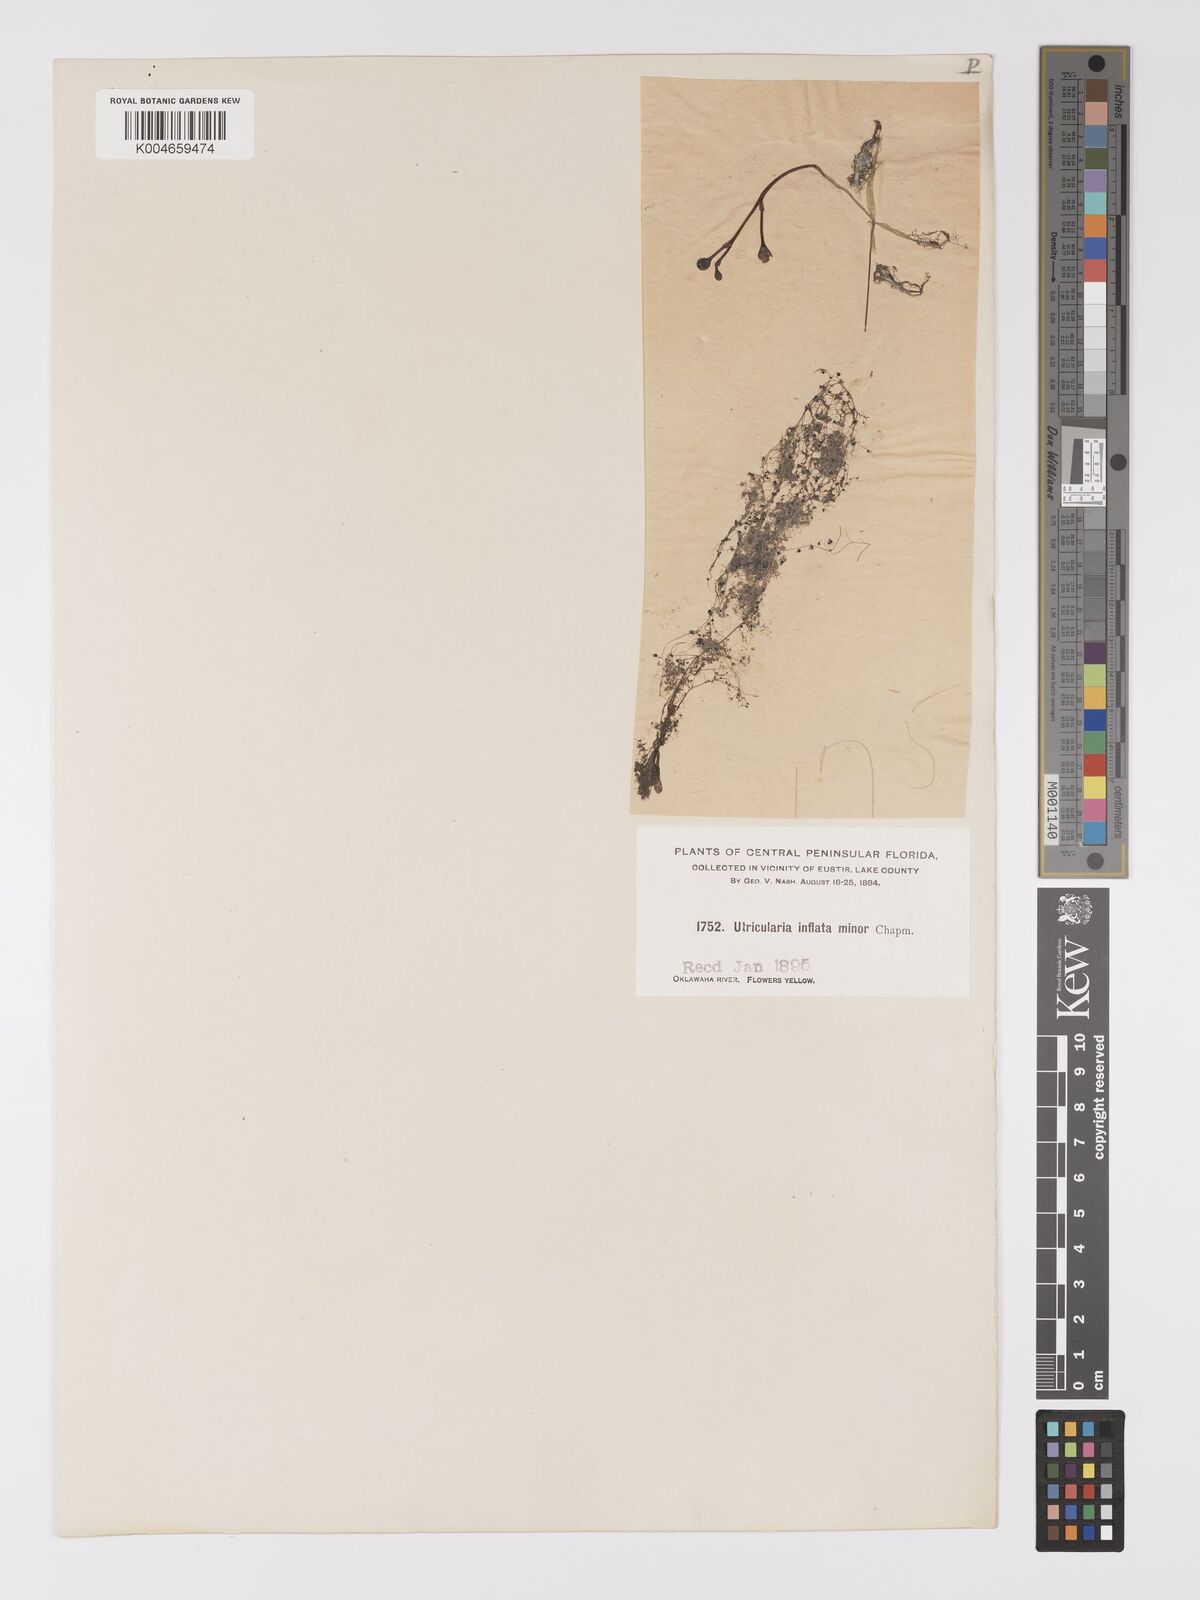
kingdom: Plantae
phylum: Tracheophyta
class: Magnoliopsida
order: Lamiales
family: Lentibulariaceae
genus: Utricularia
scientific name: Utricularia radiata
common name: Floating bladderwort
